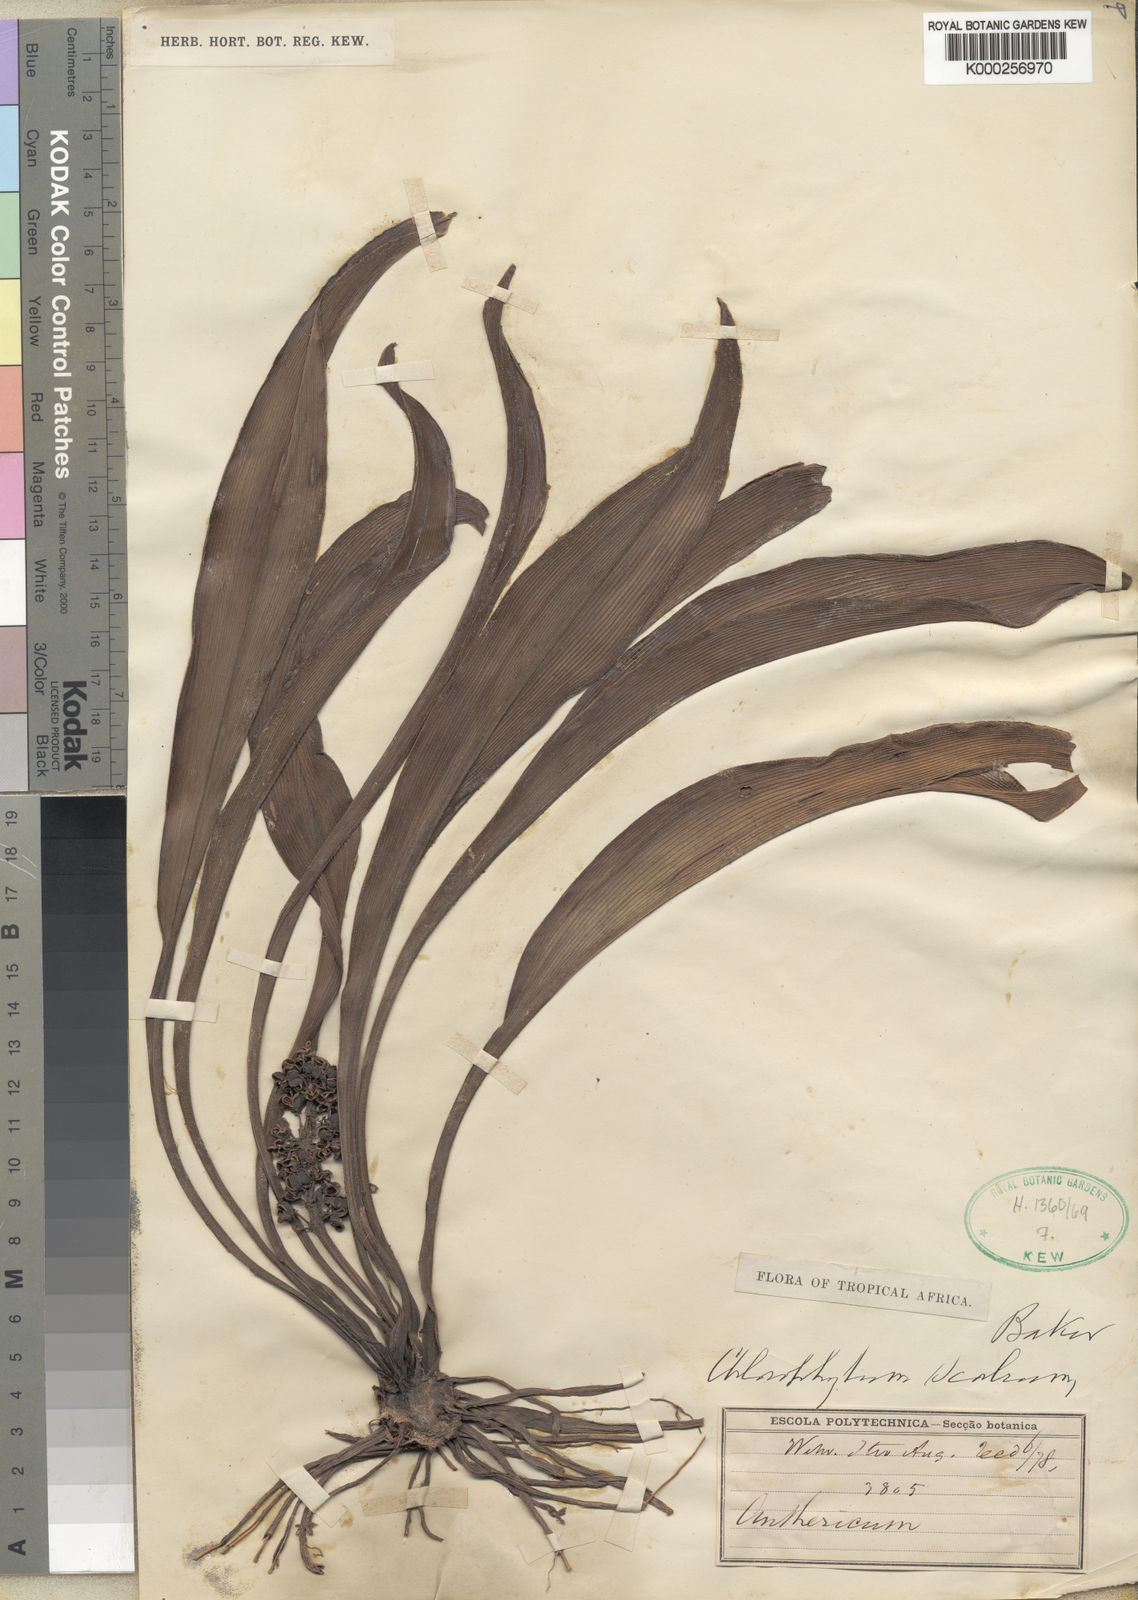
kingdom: Plantae
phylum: Tracheophyta
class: Liliopsida
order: Asparagales
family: Asparagaceae
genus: Chlorophytum
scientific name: Chlorophytum scabrum
